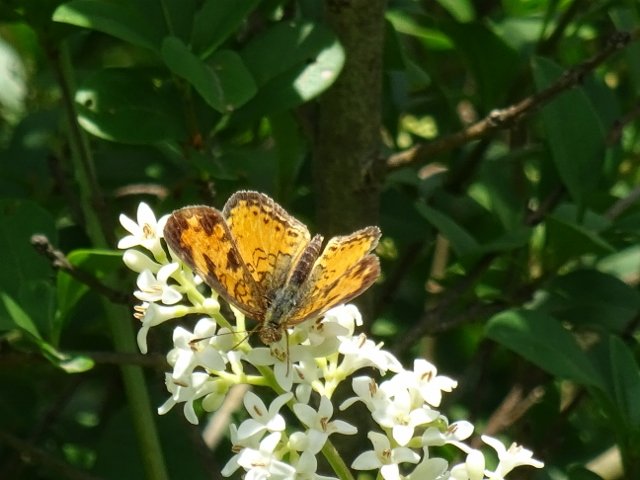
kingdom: Animalia
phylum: Arthropoda
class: Insecta
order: Lepidoptera
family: Nymphalidae
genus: Phyciodes
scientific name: Phyciodes tharos
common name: Northern Crescent
